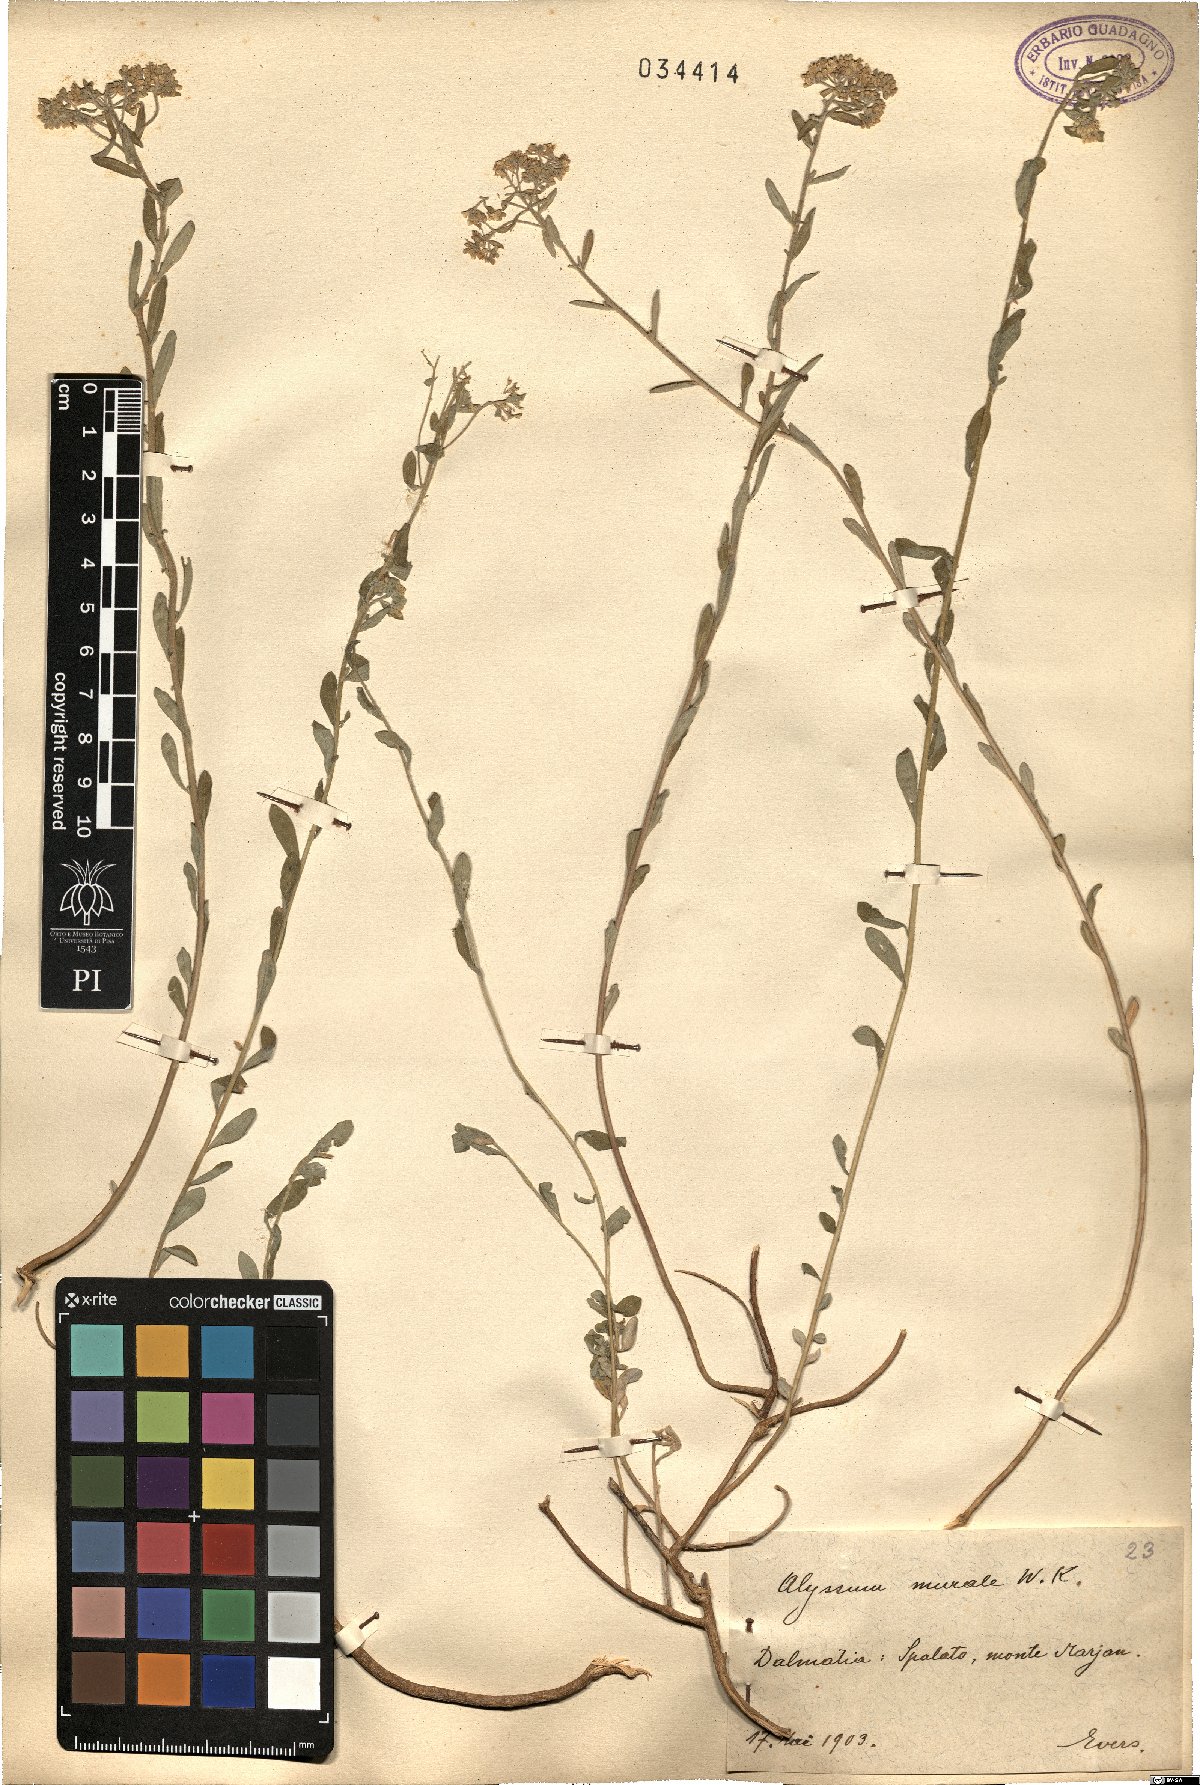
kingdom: Plantae
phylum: Tracheophyta
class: Magnoliopsida
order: Brassicales
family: Brassicaceae
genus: Odontarrhena
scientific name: Odontarrhena muralis
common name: Rock alyssum
